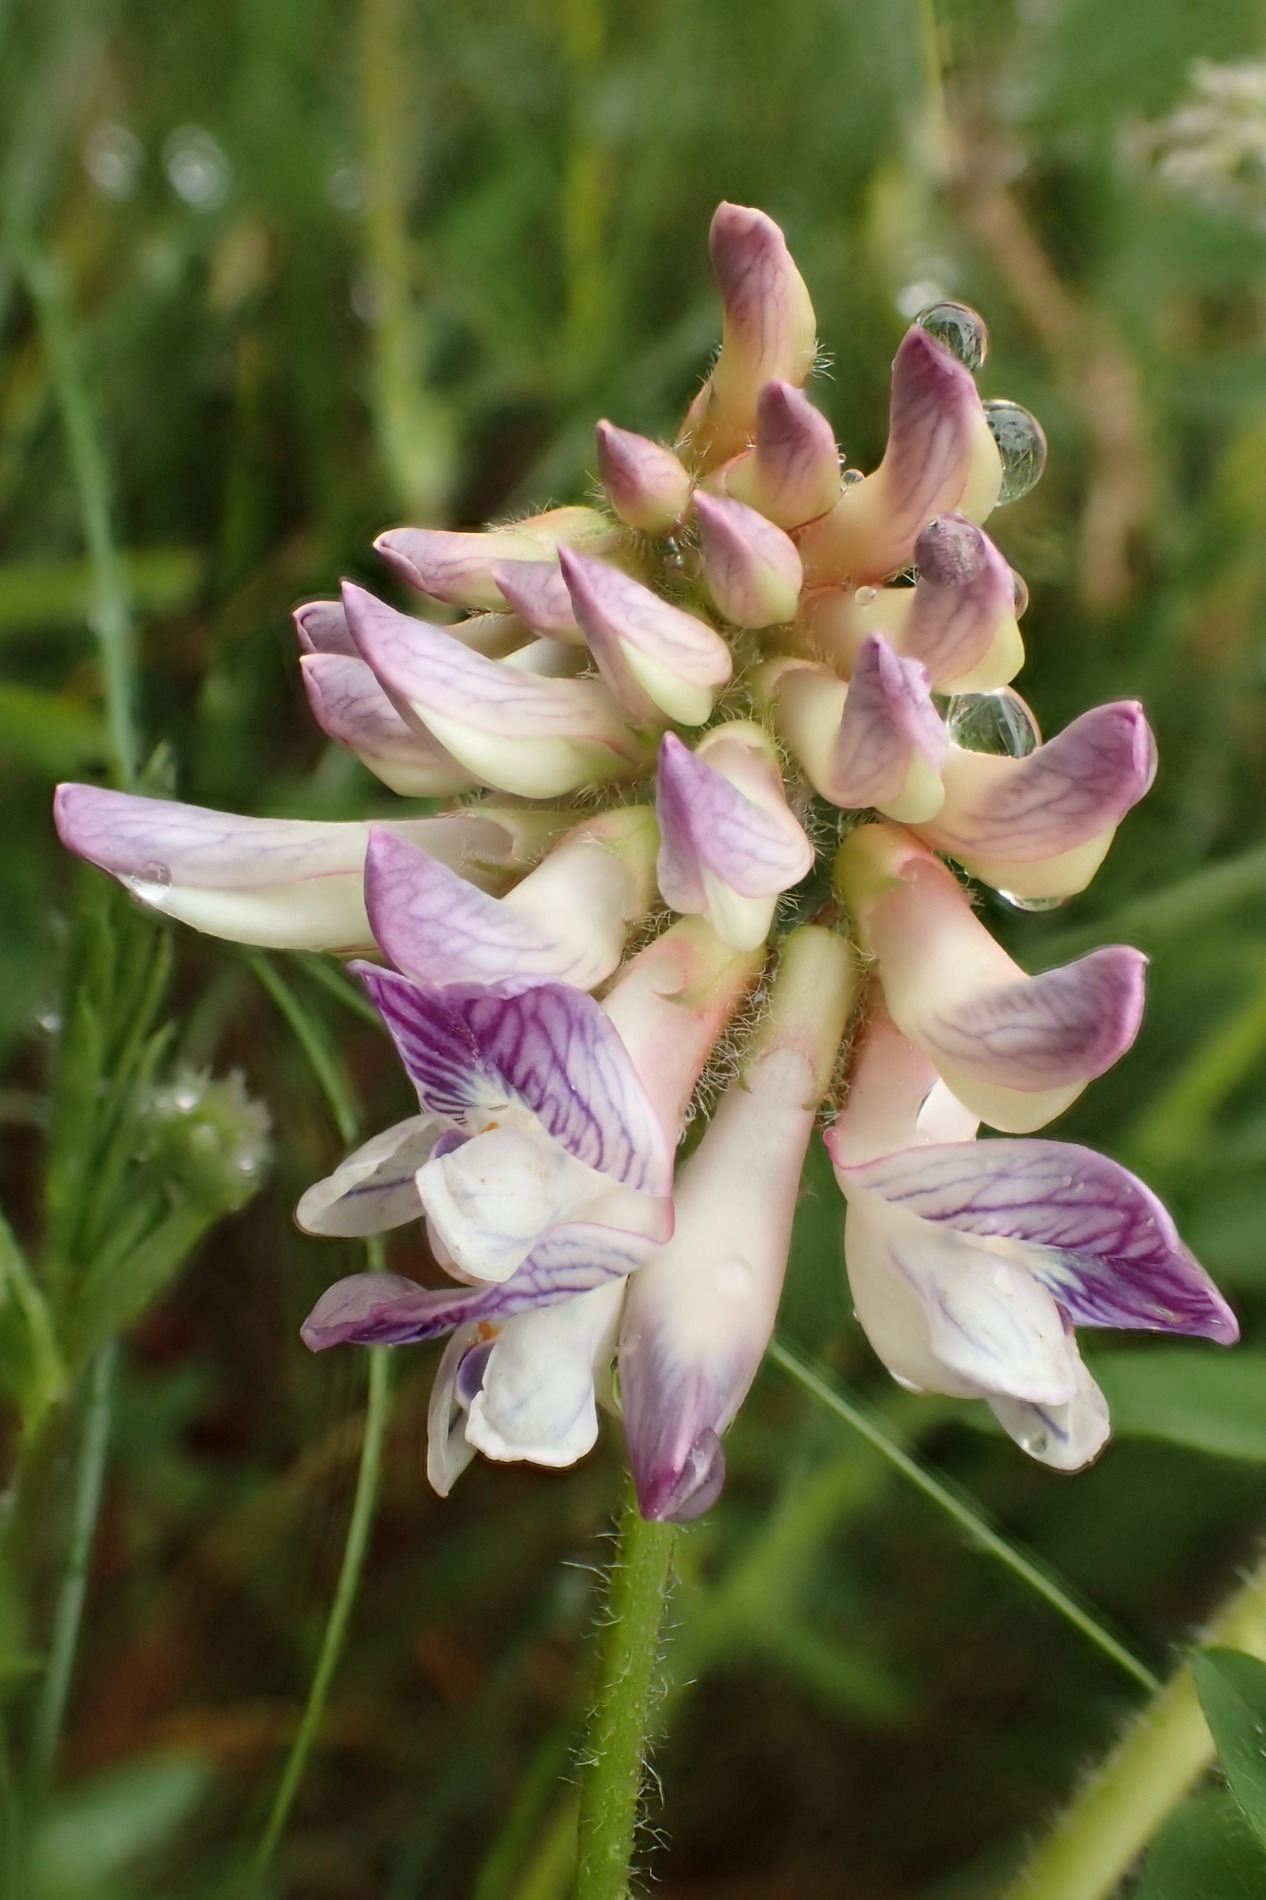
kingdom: Plantae
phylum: Tracheophyta
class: Magnoliopsida
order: Fabales
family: Fabaceae
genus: Vicia
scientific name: Vicia orobus
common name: Lyng-vikke
